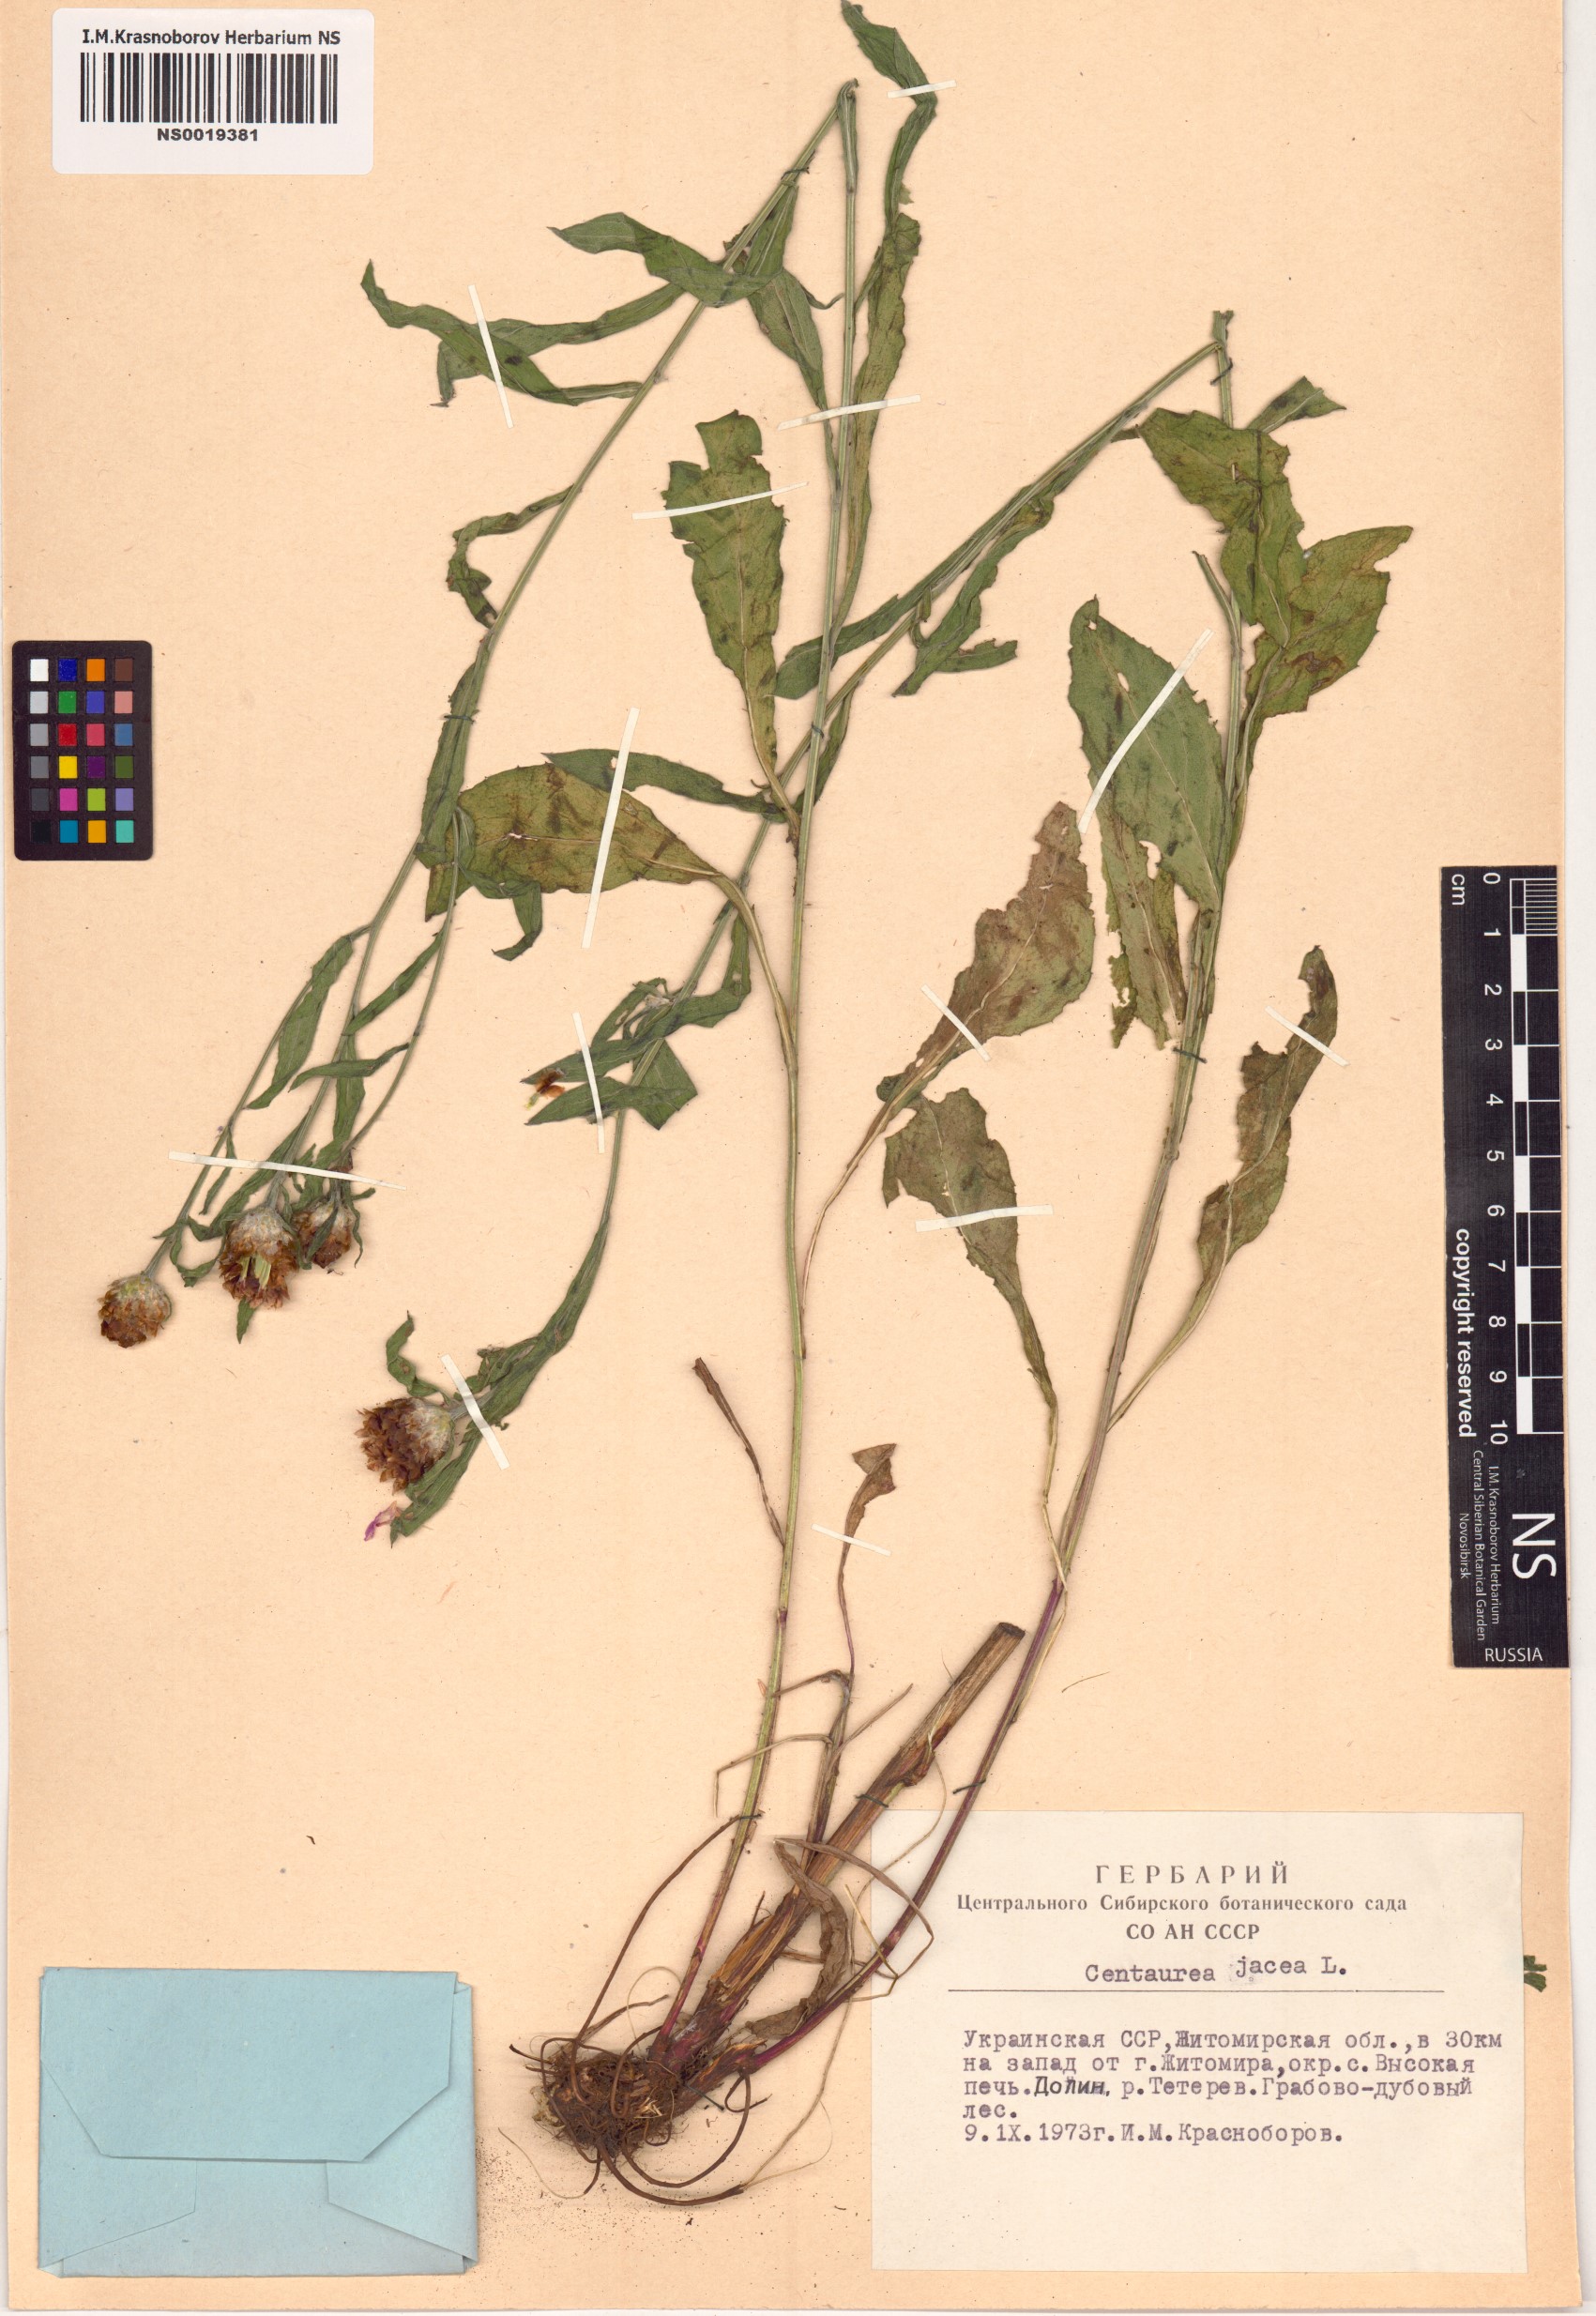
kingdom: Plantae
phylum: Tracheophyta
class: Magnoliopsida
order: Asterales
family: Asteraceae
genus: Centaurea
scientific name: Centaurea jacea
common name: Brown knapweed
